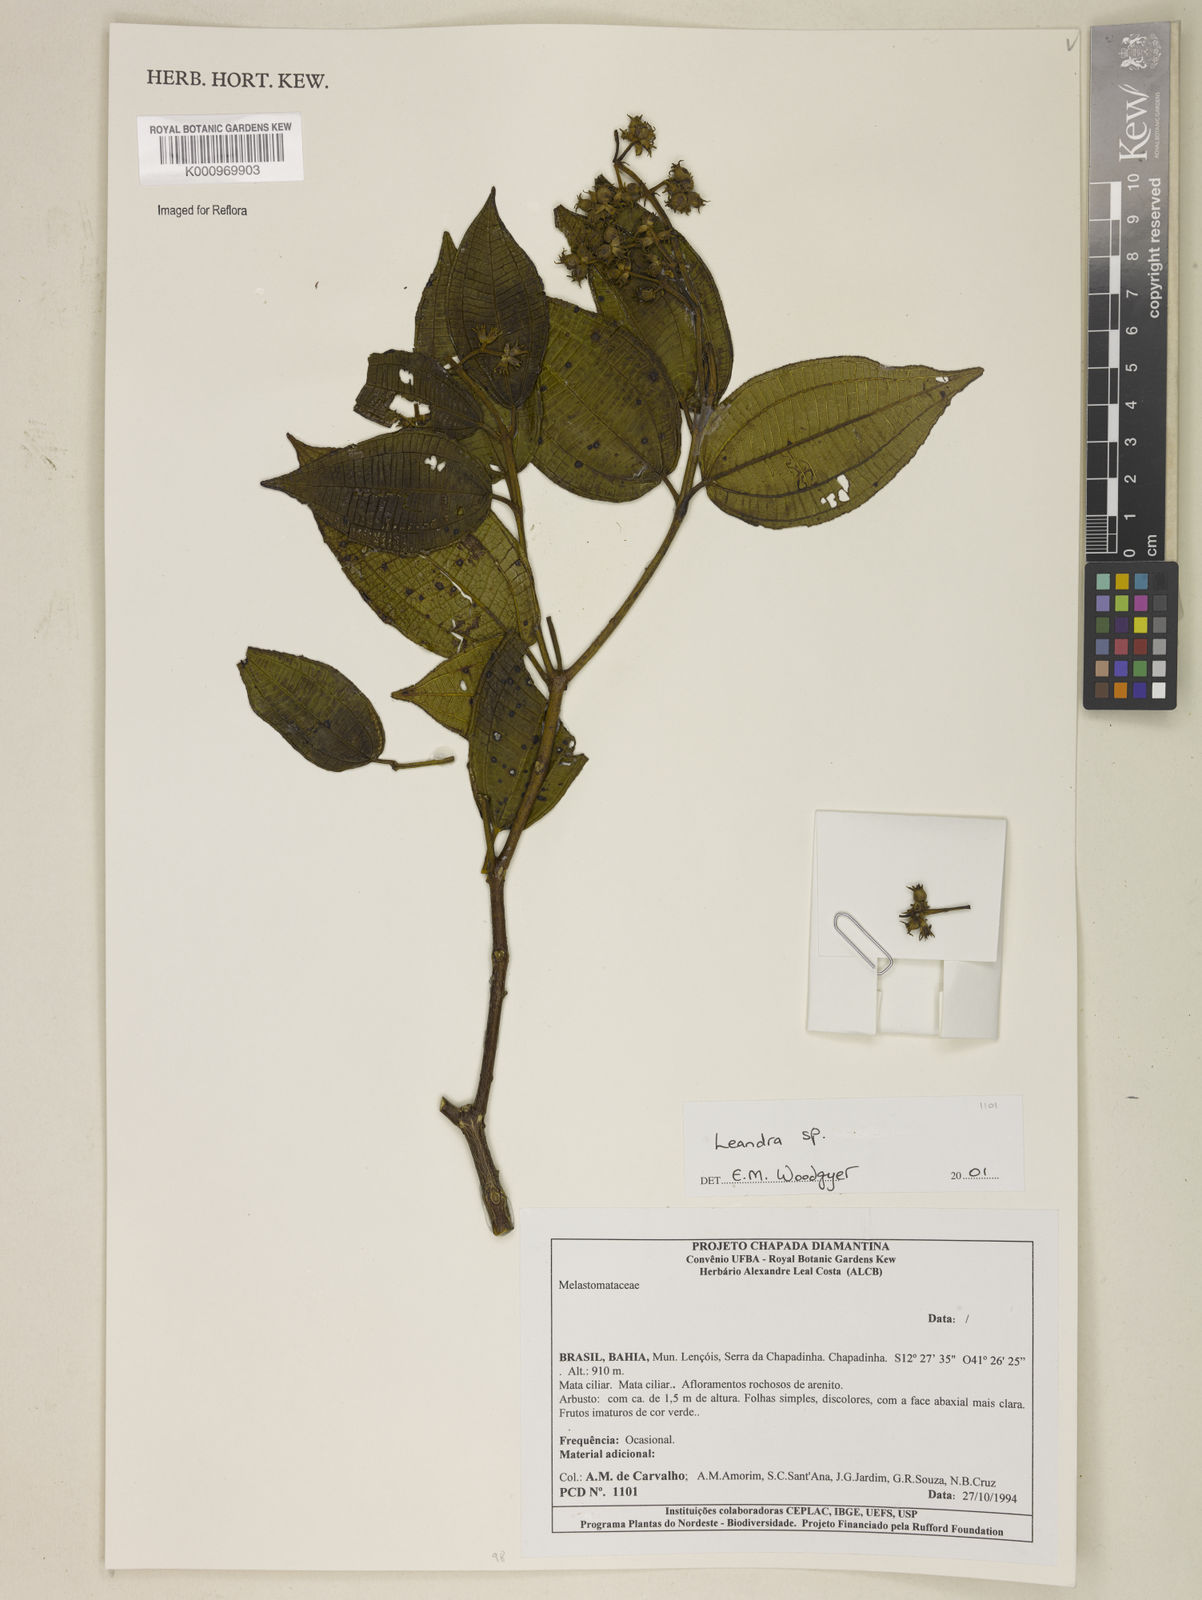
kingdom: Plantae
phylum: Tracheophyta
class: Magnoliopsida
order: Myrtales
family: Melastomataceae
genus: Miconia
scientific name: Miconia
